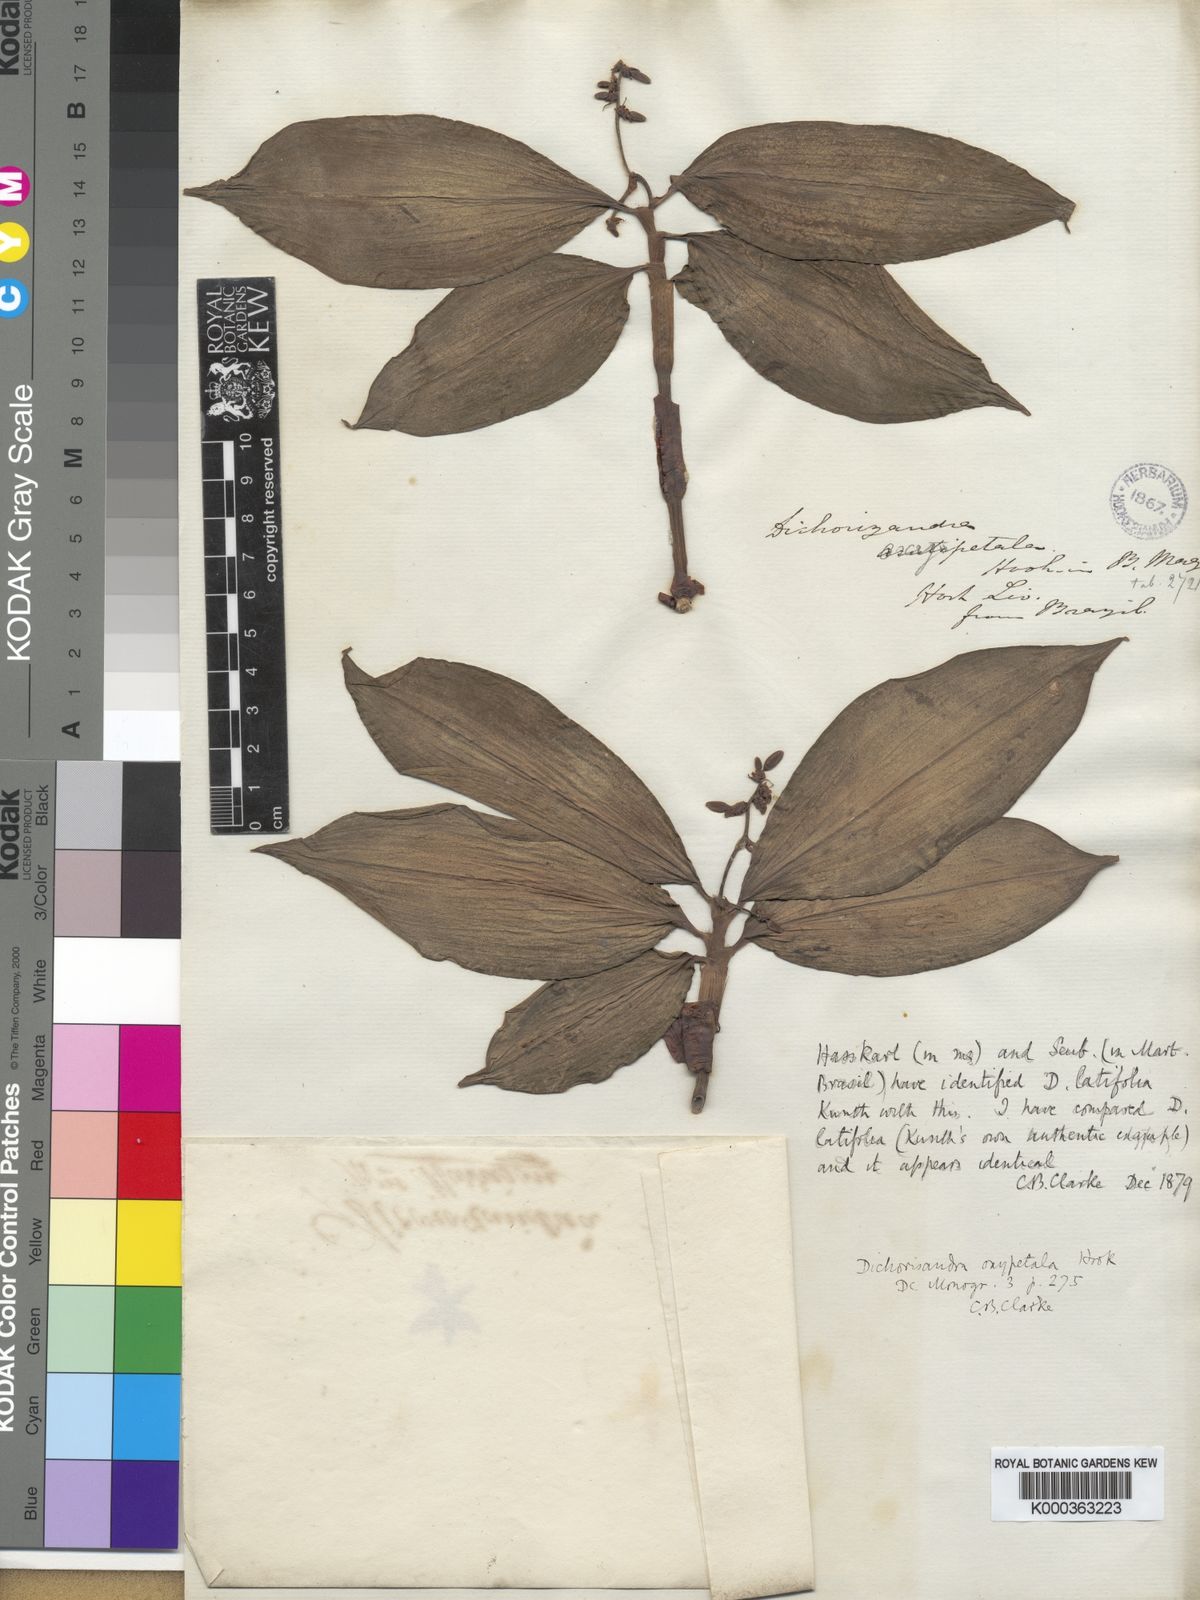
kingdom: Plantae
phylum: Tracheophyta
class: Liliopsida
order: Commelinales
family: Commelinaceae
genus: Dichorisandra
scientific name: Dichorisandra
